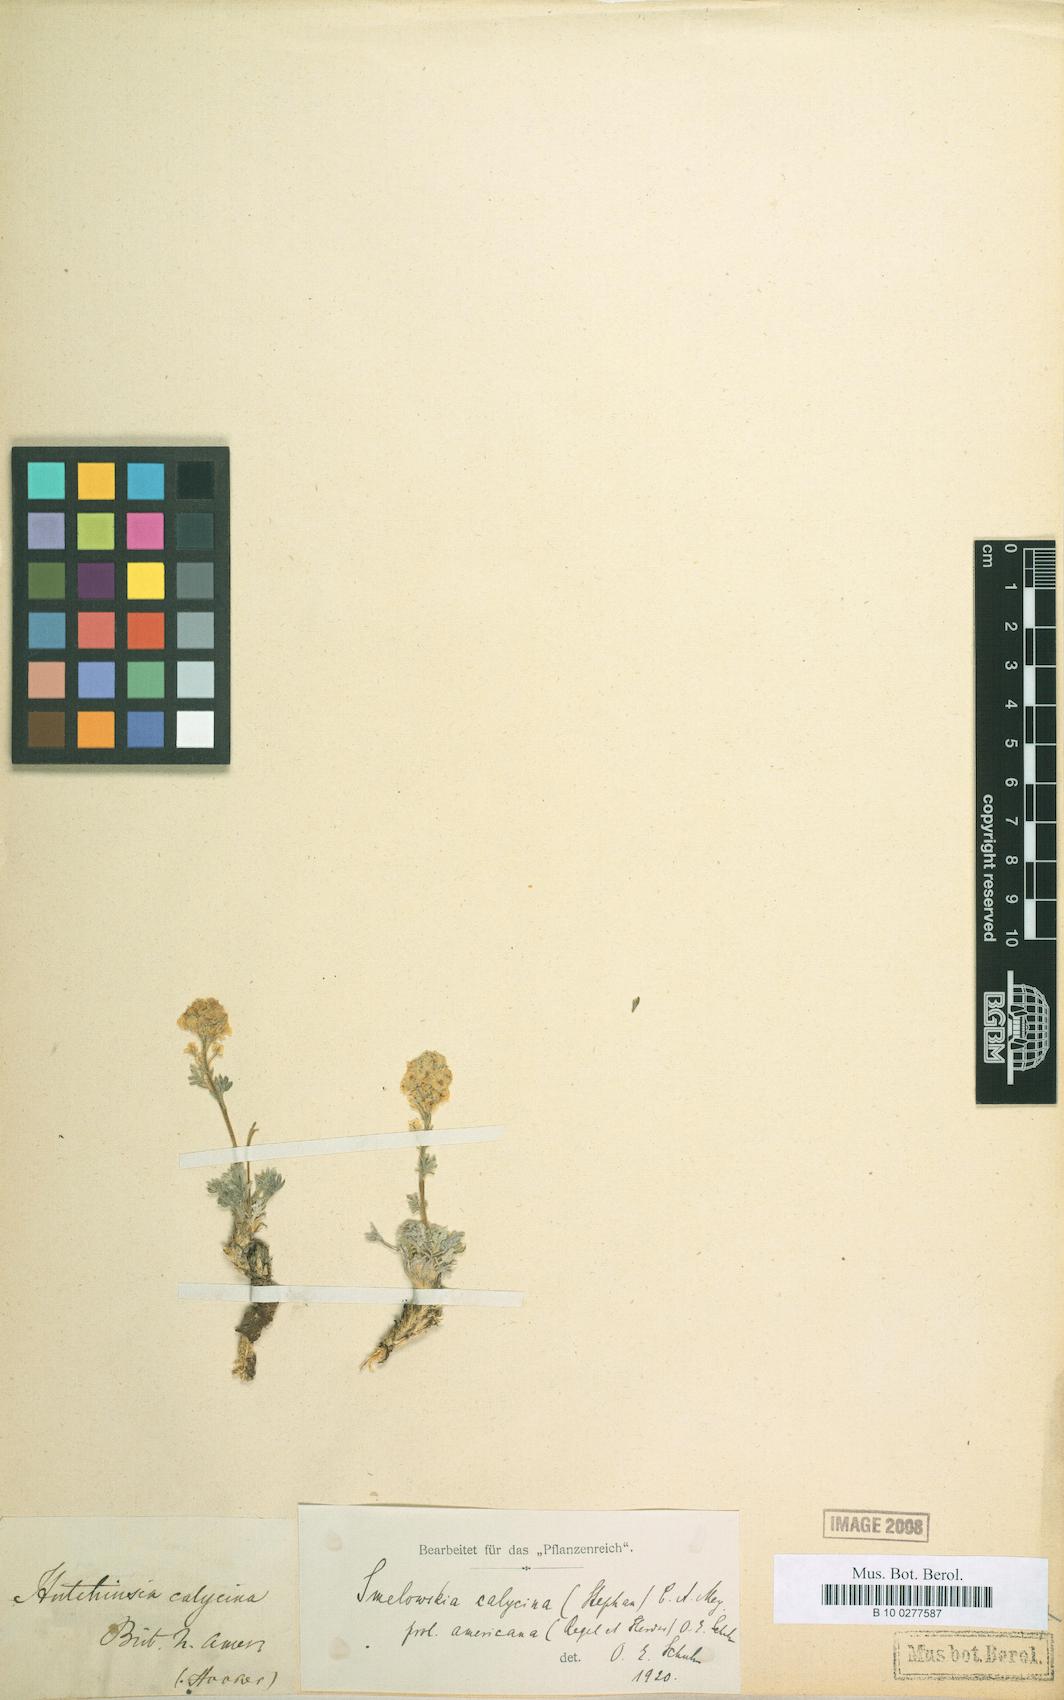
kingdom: Plantae
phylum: Tracheophyta
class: Magnoliopsida
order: Brassicales
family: Brassicaceae
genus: Smelowskia
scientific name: Smelowskia americana
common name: American false candytuft
